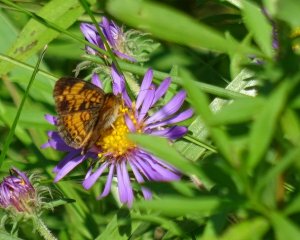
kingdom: Animalia
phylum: Arthropoda
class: Insecta
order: Lepidoptera
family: Nymphalidae
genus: Phyciodes
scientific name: Phyciodes tharos
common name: Northern Crescent
